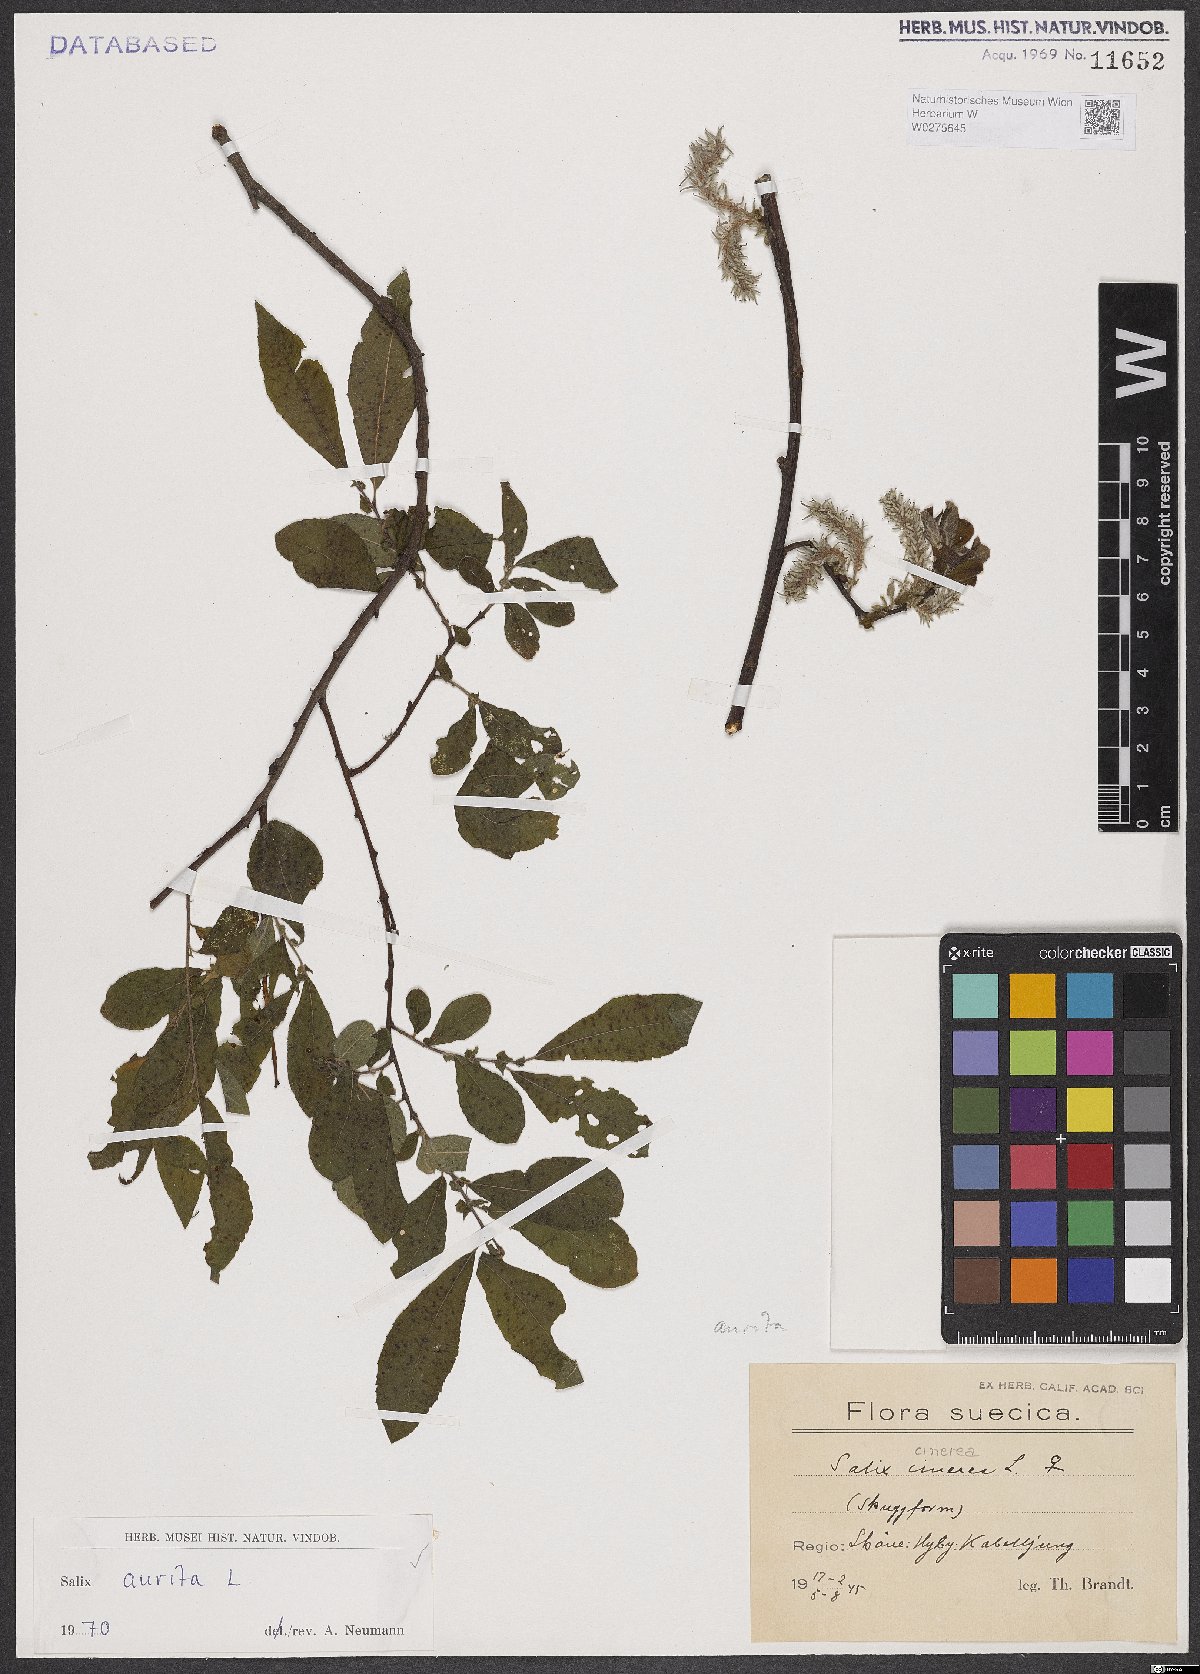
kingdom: Plantae
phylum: Tracheophyta
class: Magnoliopsida
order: Malpighiales
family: Salicaceae
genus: Salix
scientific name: Salix aurita
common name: Eared willow
